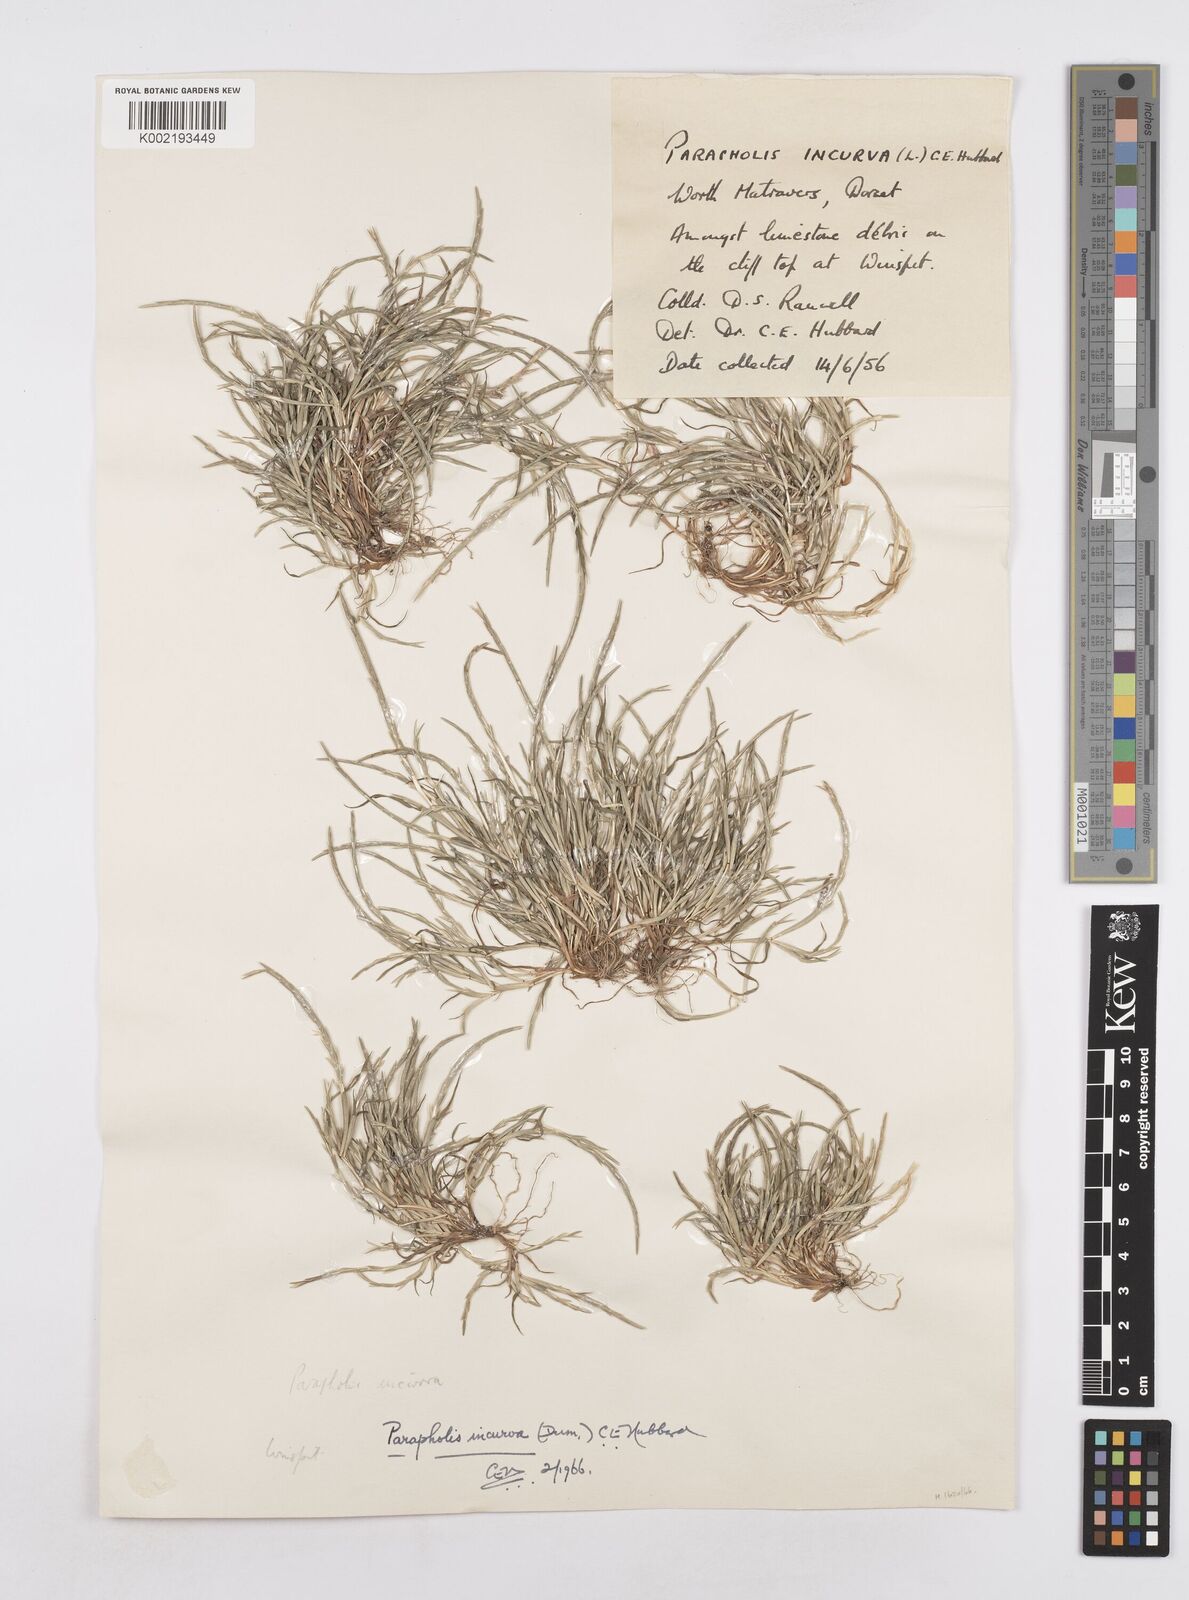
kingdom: Plantae
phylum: Tracheophyta
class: Liliopsida
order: Poales
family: Poaceae
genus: Parapholis
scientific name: Parapholis incurva
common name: Curved sicklegrass
